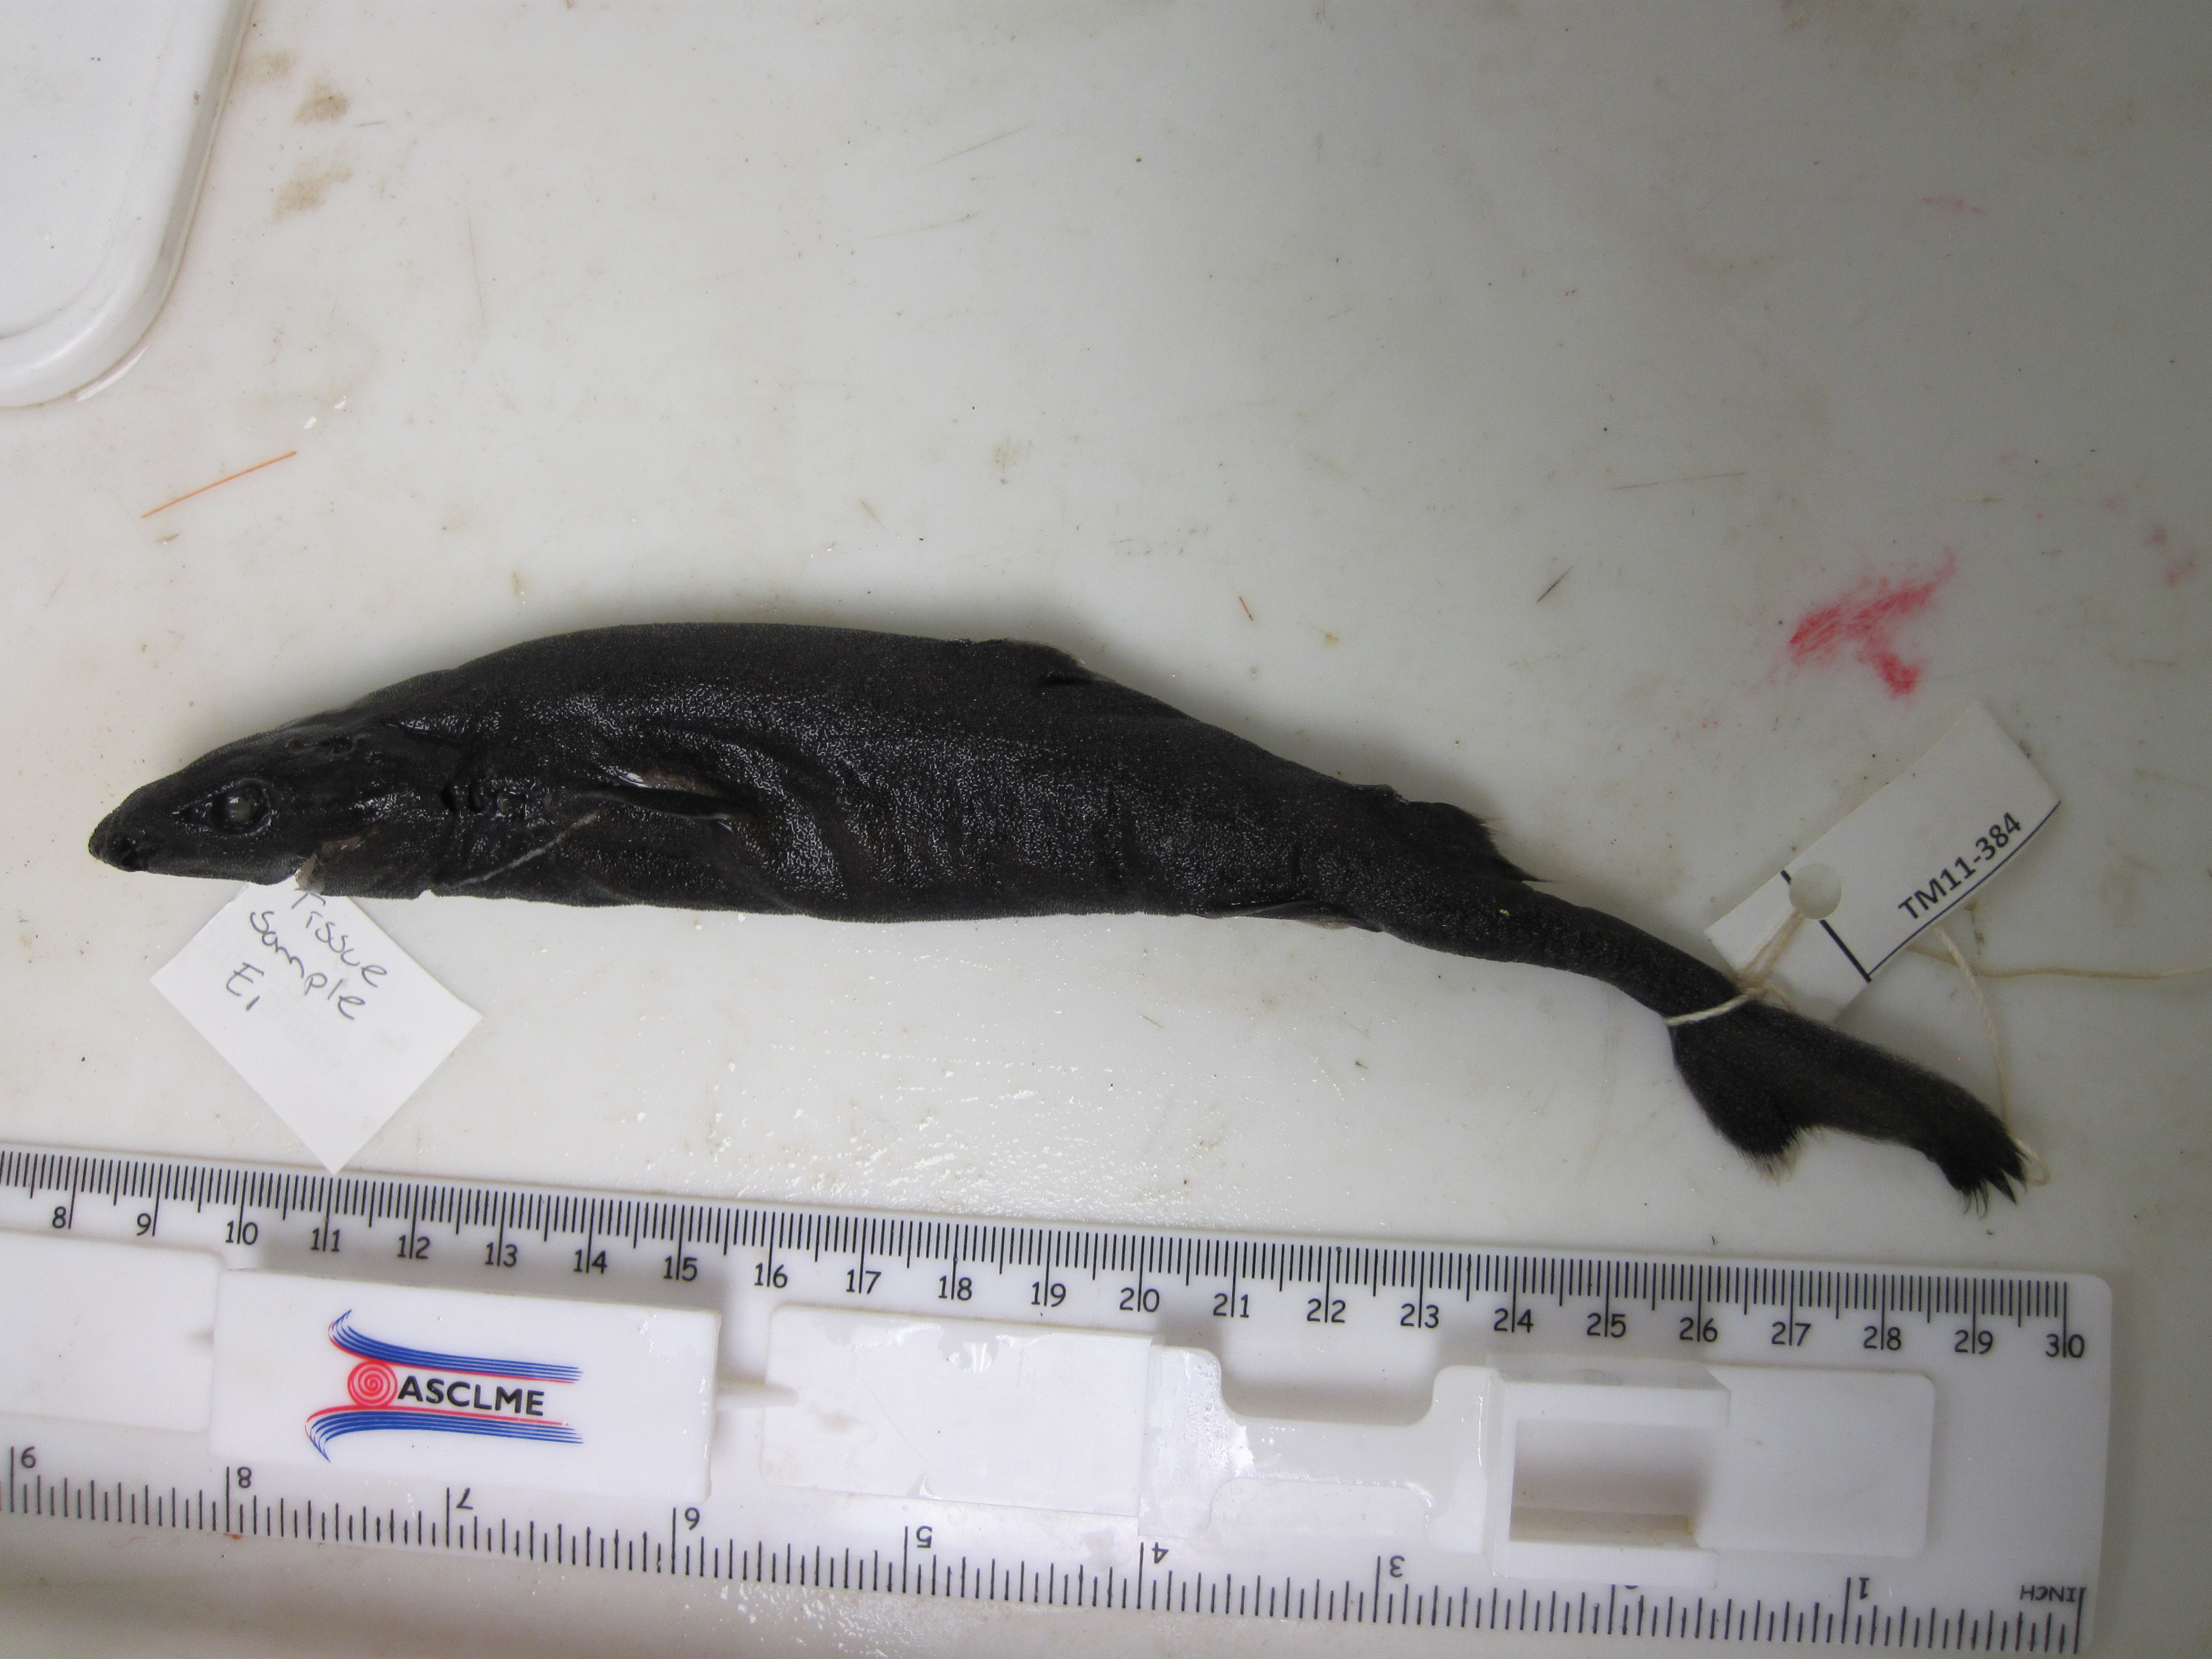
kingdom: Animalia
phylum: Chordata
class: Elasmobranchii
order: Squaliformes
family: Etmopteridae
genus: Etmopterus
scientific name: Etmopterus compagnoi
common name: Broadbanded lanternshark
